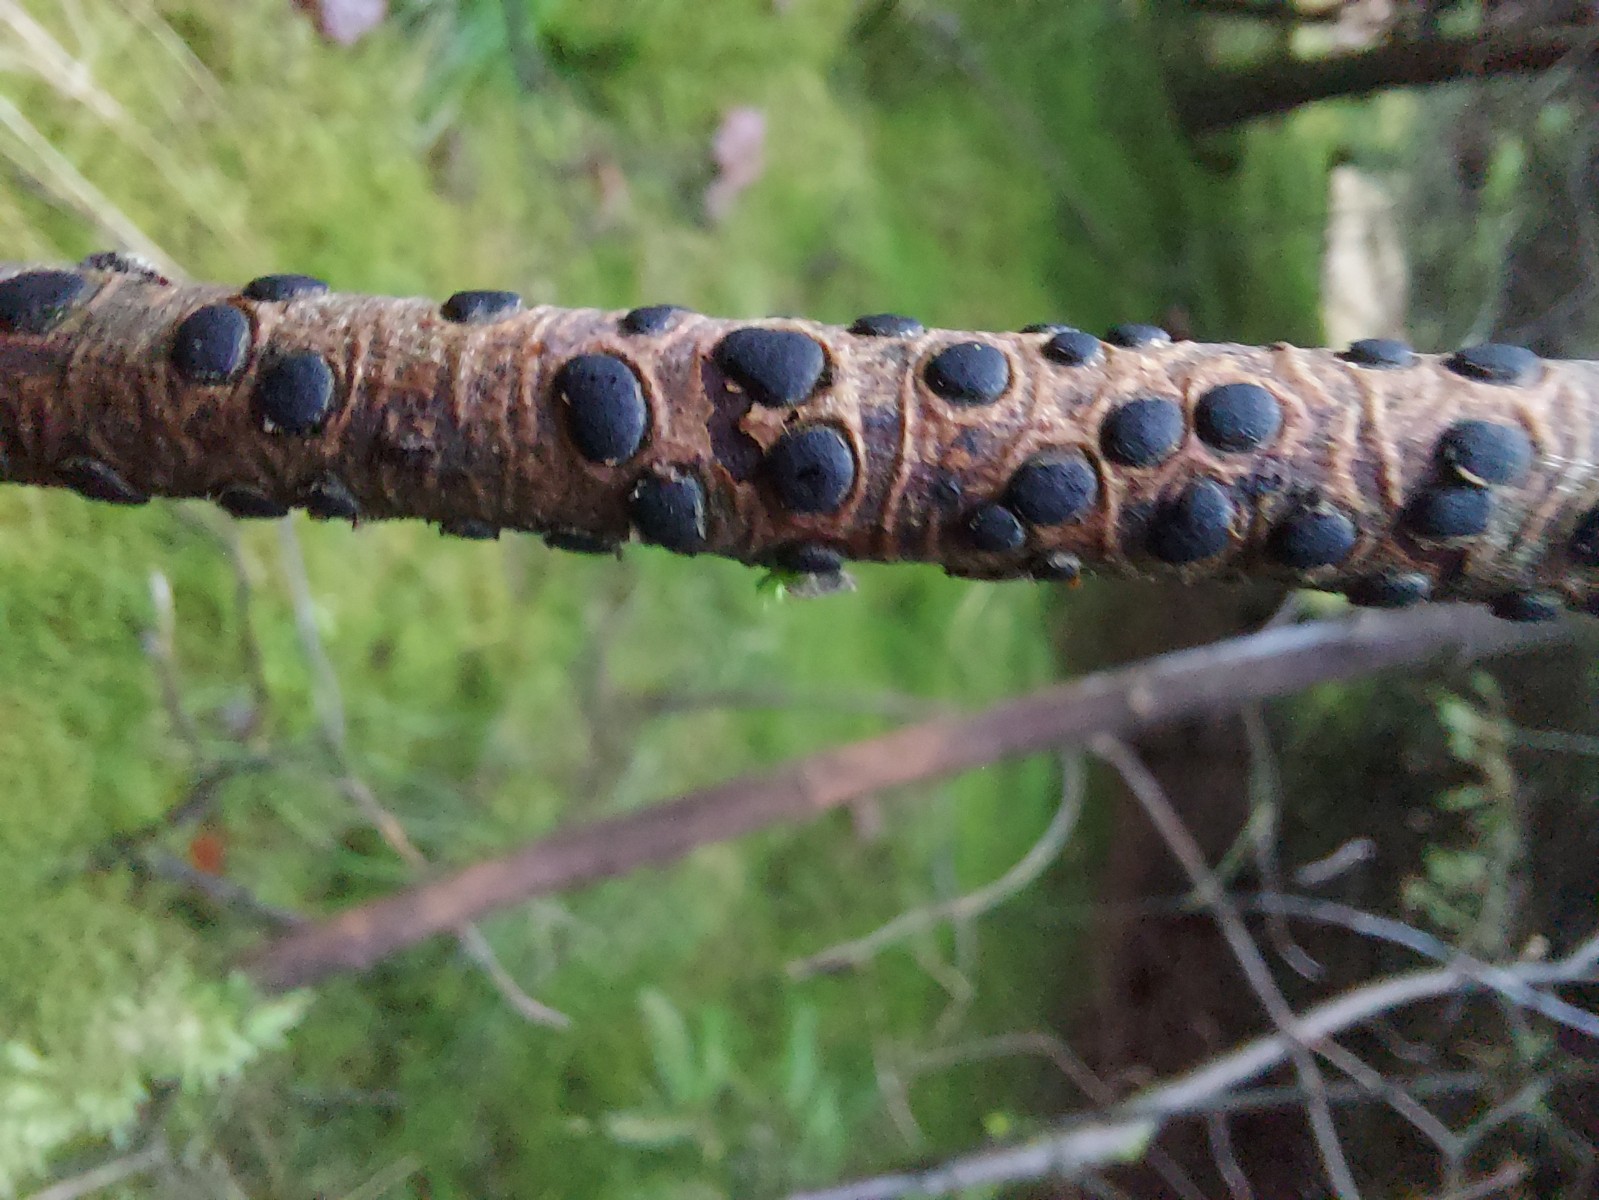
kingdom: Fungi
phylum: Ascomycota
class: Sordariomycetes
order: Xylariales
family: Diatrypaceae
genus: Diatrype
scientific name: Diatrype bullata
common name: pile-kulskorpe
